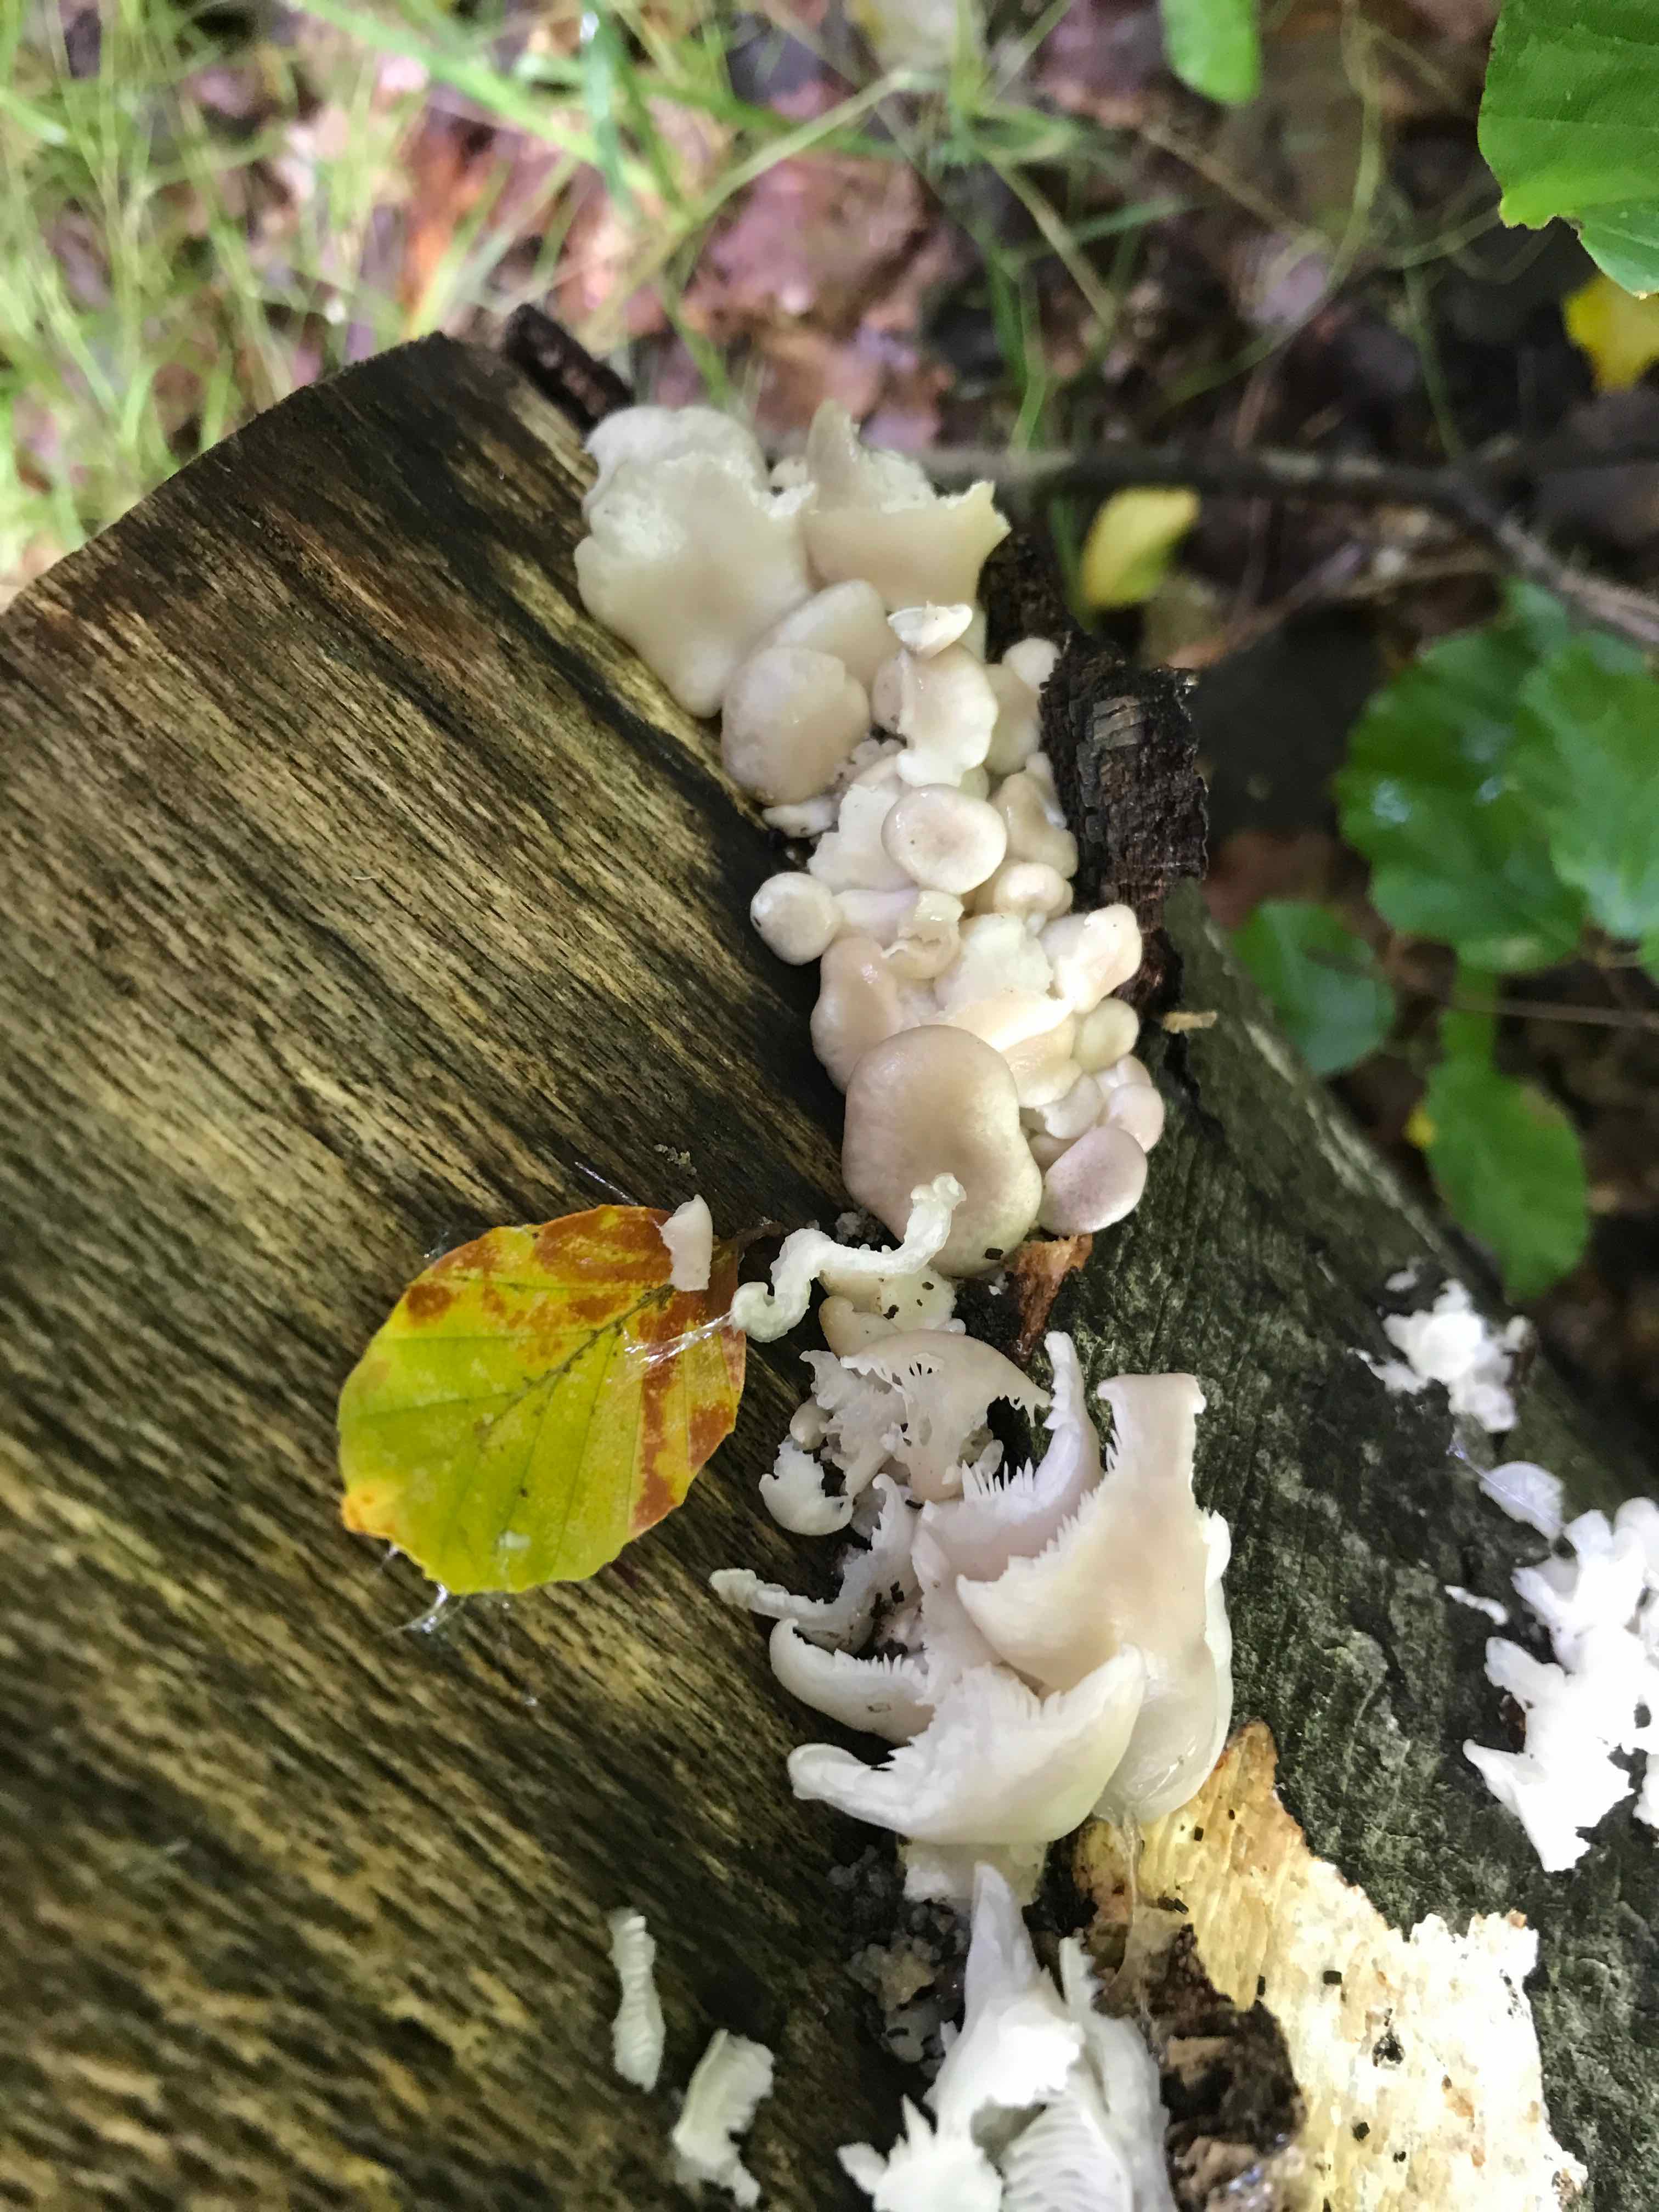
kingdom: Fungi
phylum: Basidiomycota
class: Agaricomycetes
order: Agaricales
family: Pleurotaceae
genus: Pleurotus
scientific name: Pleurotus pulmonarius
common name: sommer-østershat
